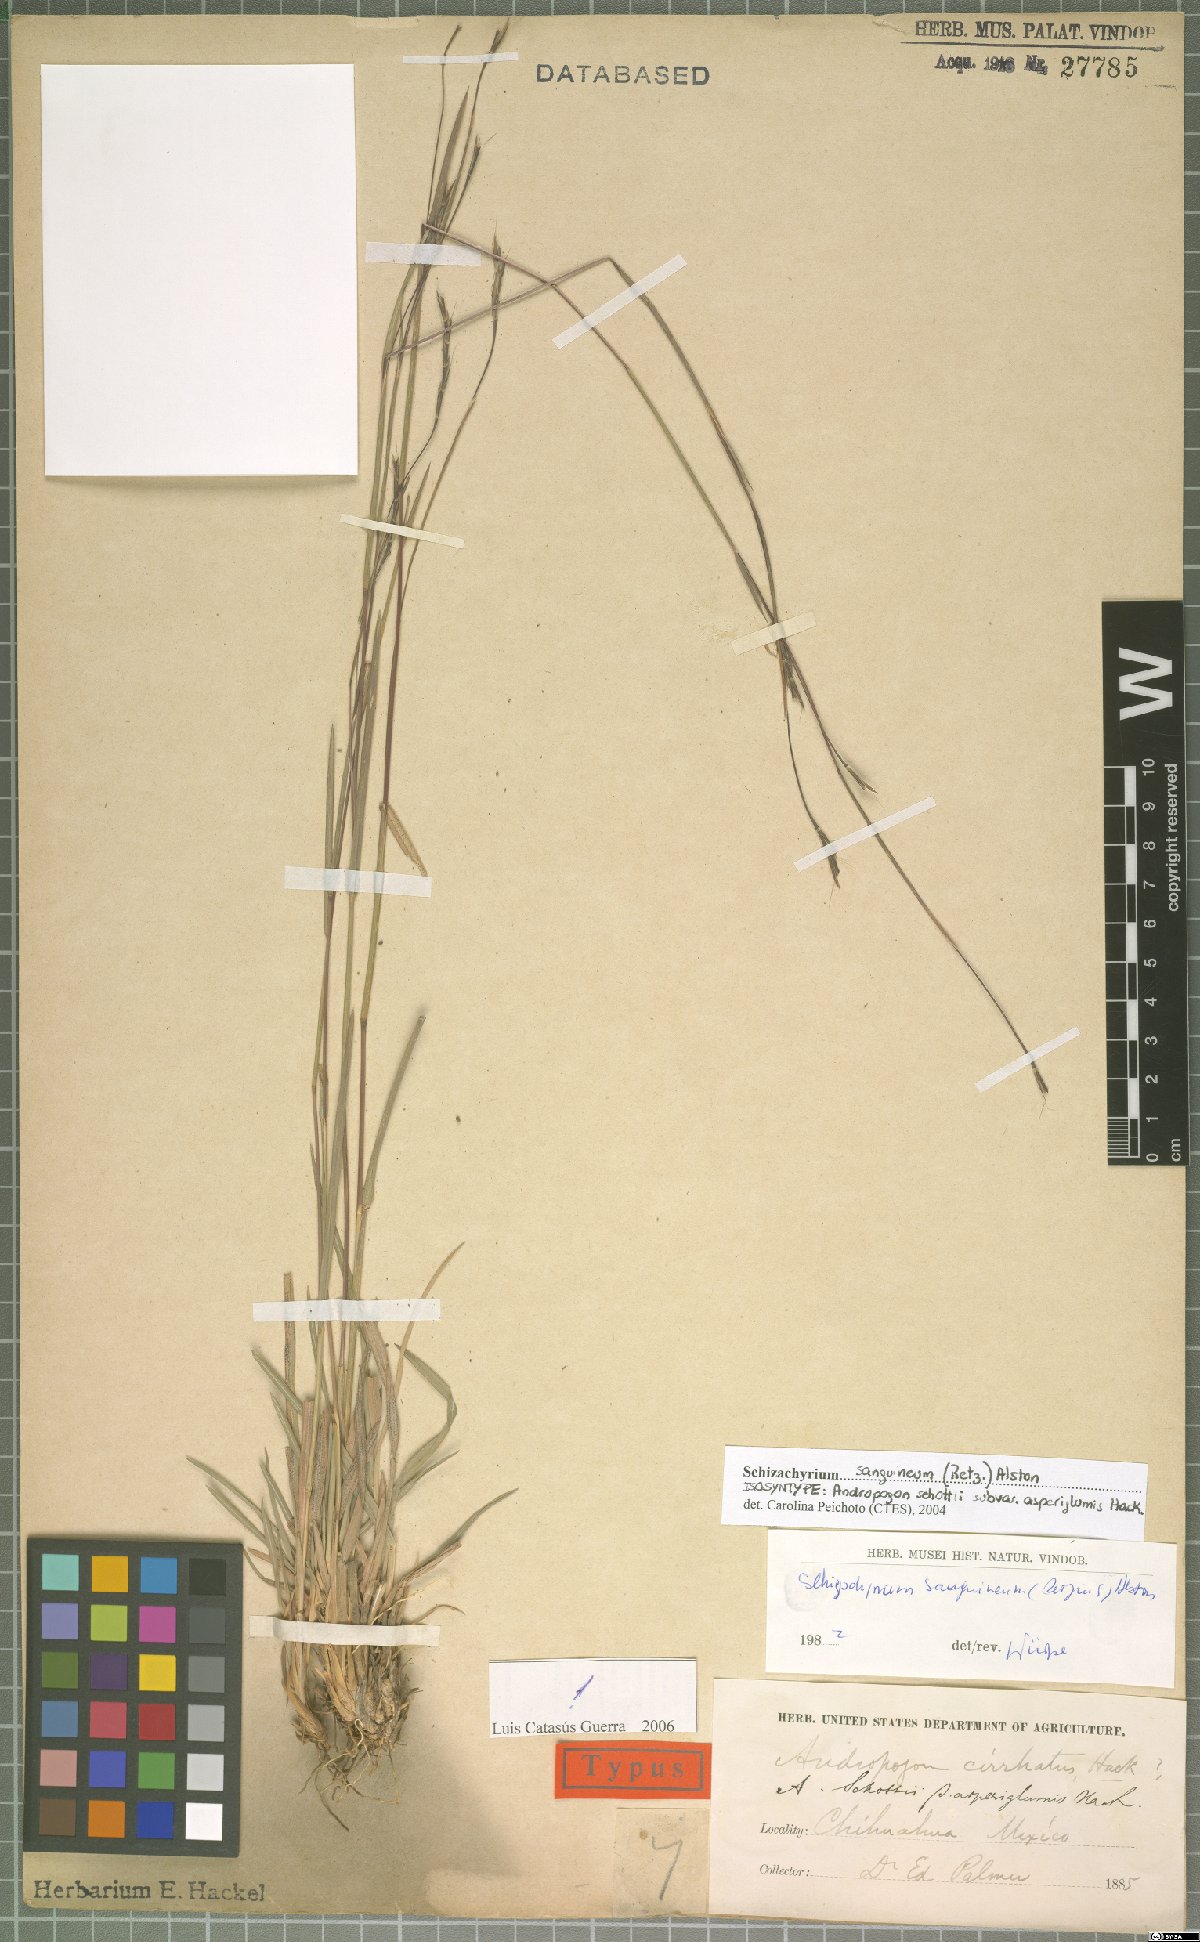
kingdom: Plantae
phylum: Tracheophyta
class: Liliopsida
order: Poales
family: Poaceae
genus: Schizachyrium
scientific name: Schizachyrium sanguineum
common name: Crimson bluestem
